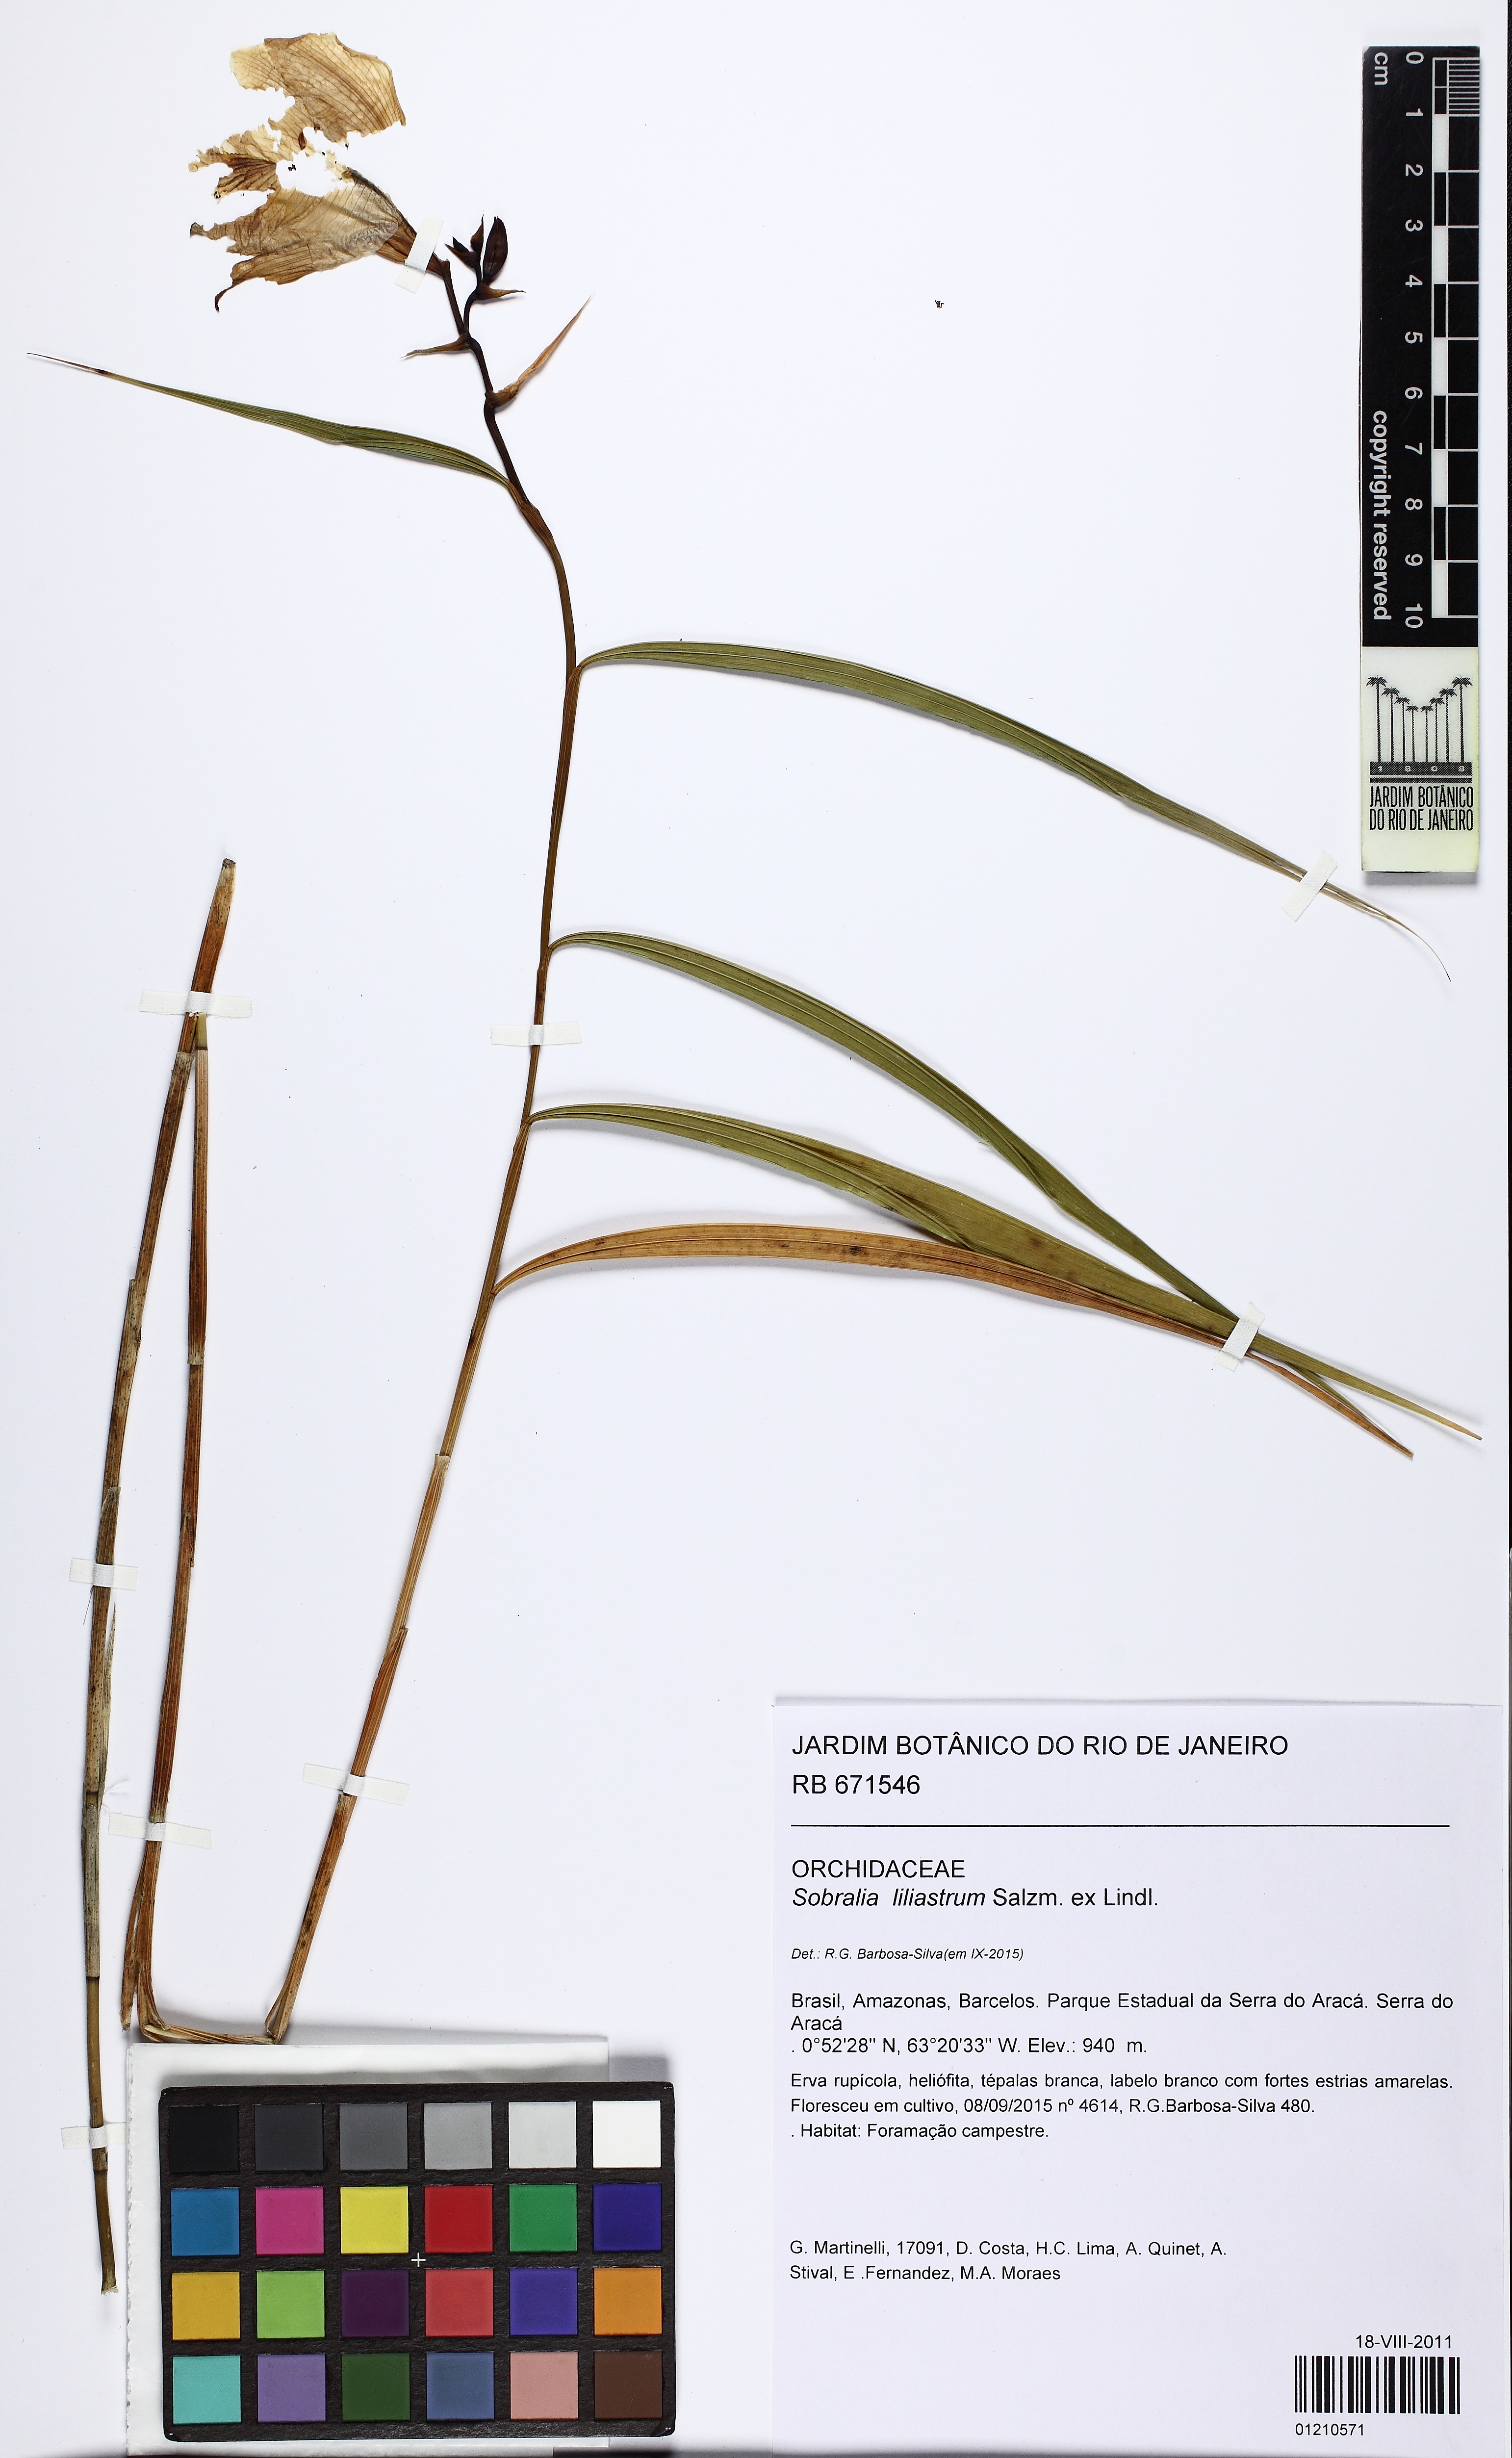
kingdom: Plantae
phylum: Tracheophyta
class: Liliopsida
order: Asparagales
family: Orchidaceae
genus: Sobralia
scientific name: Sobralia liliastrum
